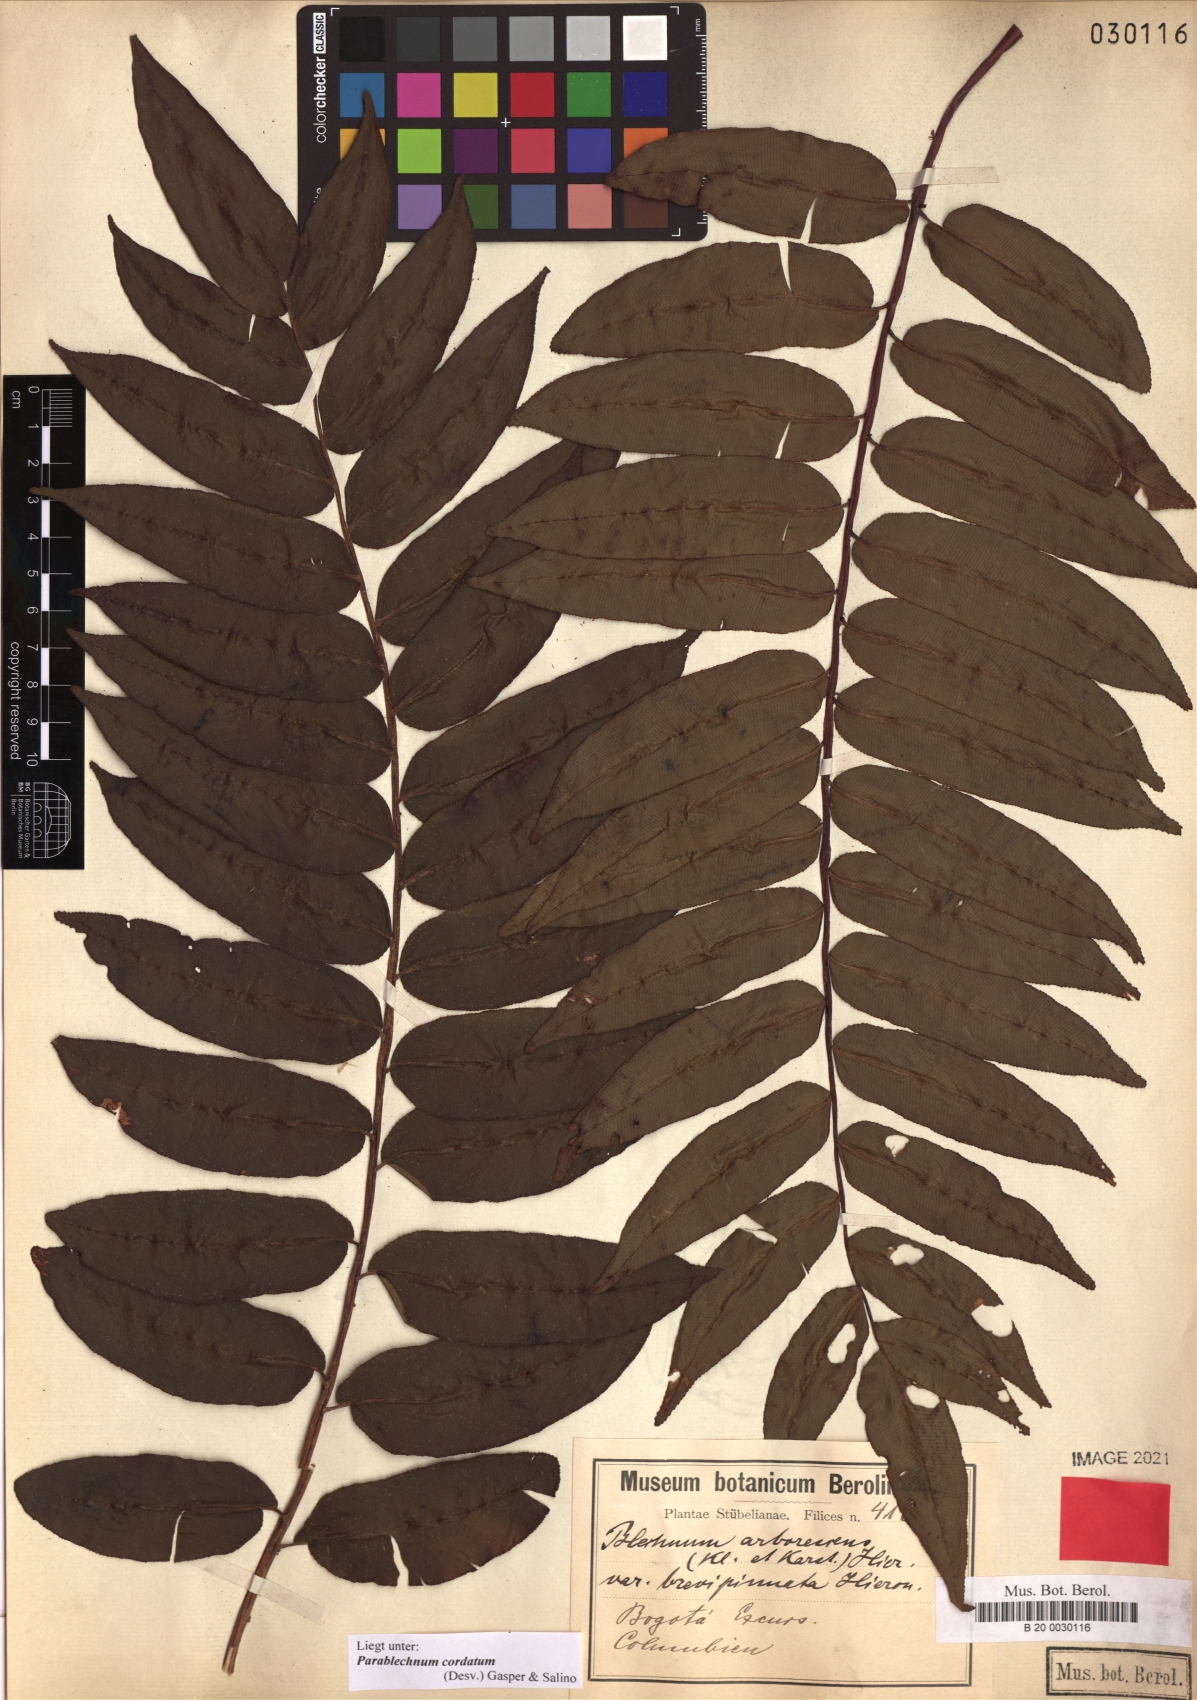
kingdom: Plantae
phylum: Tracheophyta
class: Polypodiopsida
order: Polypodiales
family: Blechnaceae
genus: Parablechnum
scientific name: Parablechnum cordatum
